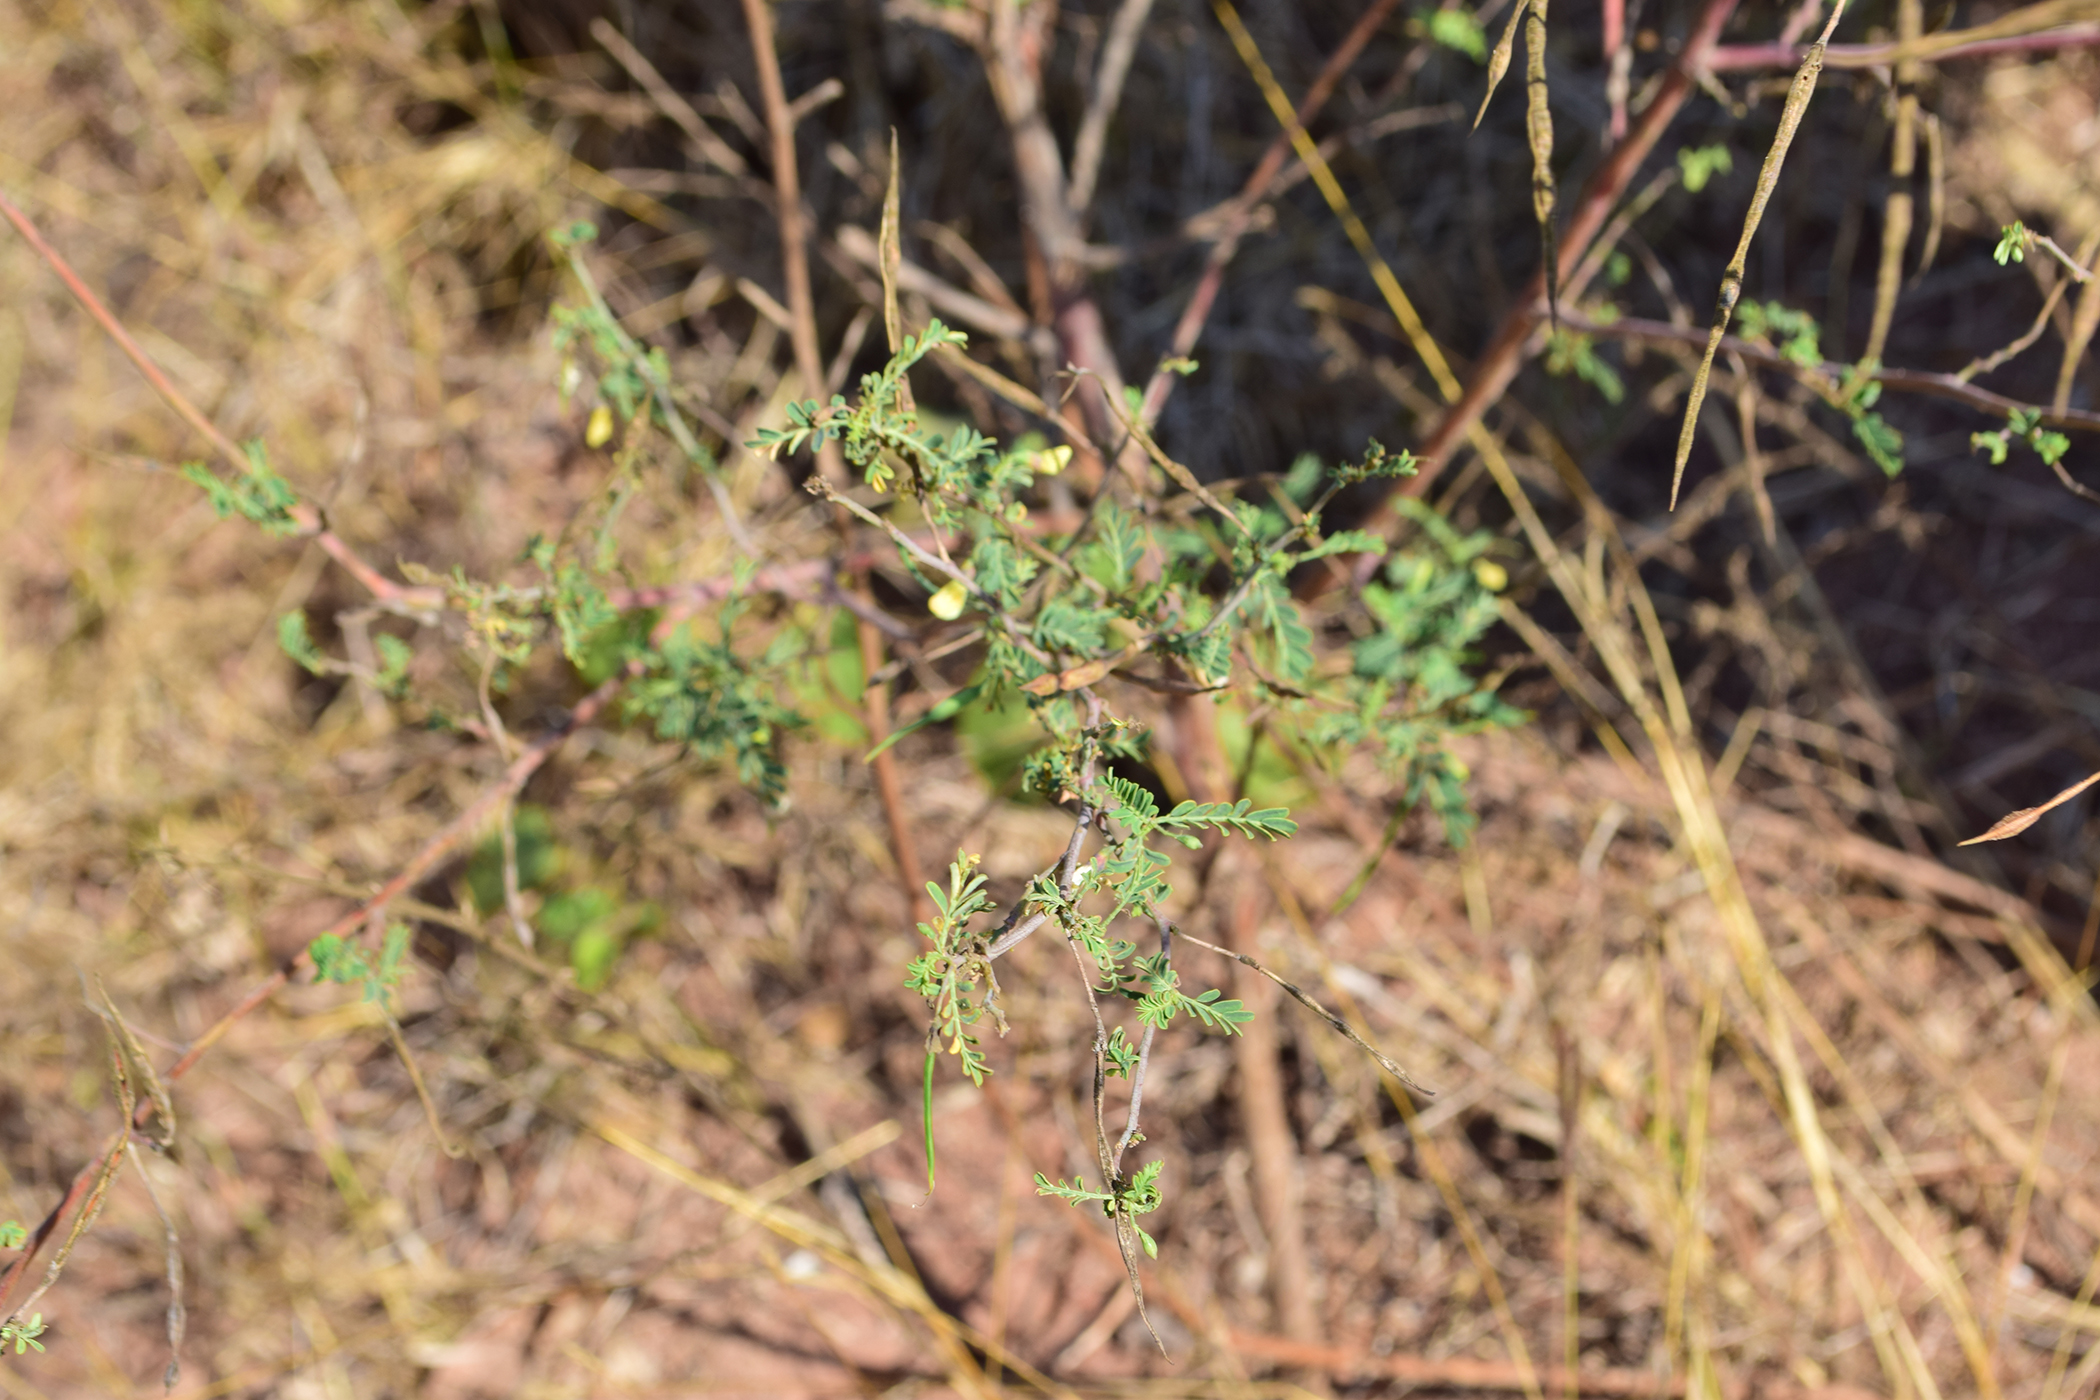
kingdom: Plantae
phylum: Tracheophyta
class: Magnoliopsida
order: Fabales
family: Fabaceae
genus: Sesbania
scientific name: Sesbania bispinosa
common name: Sesbania pea
